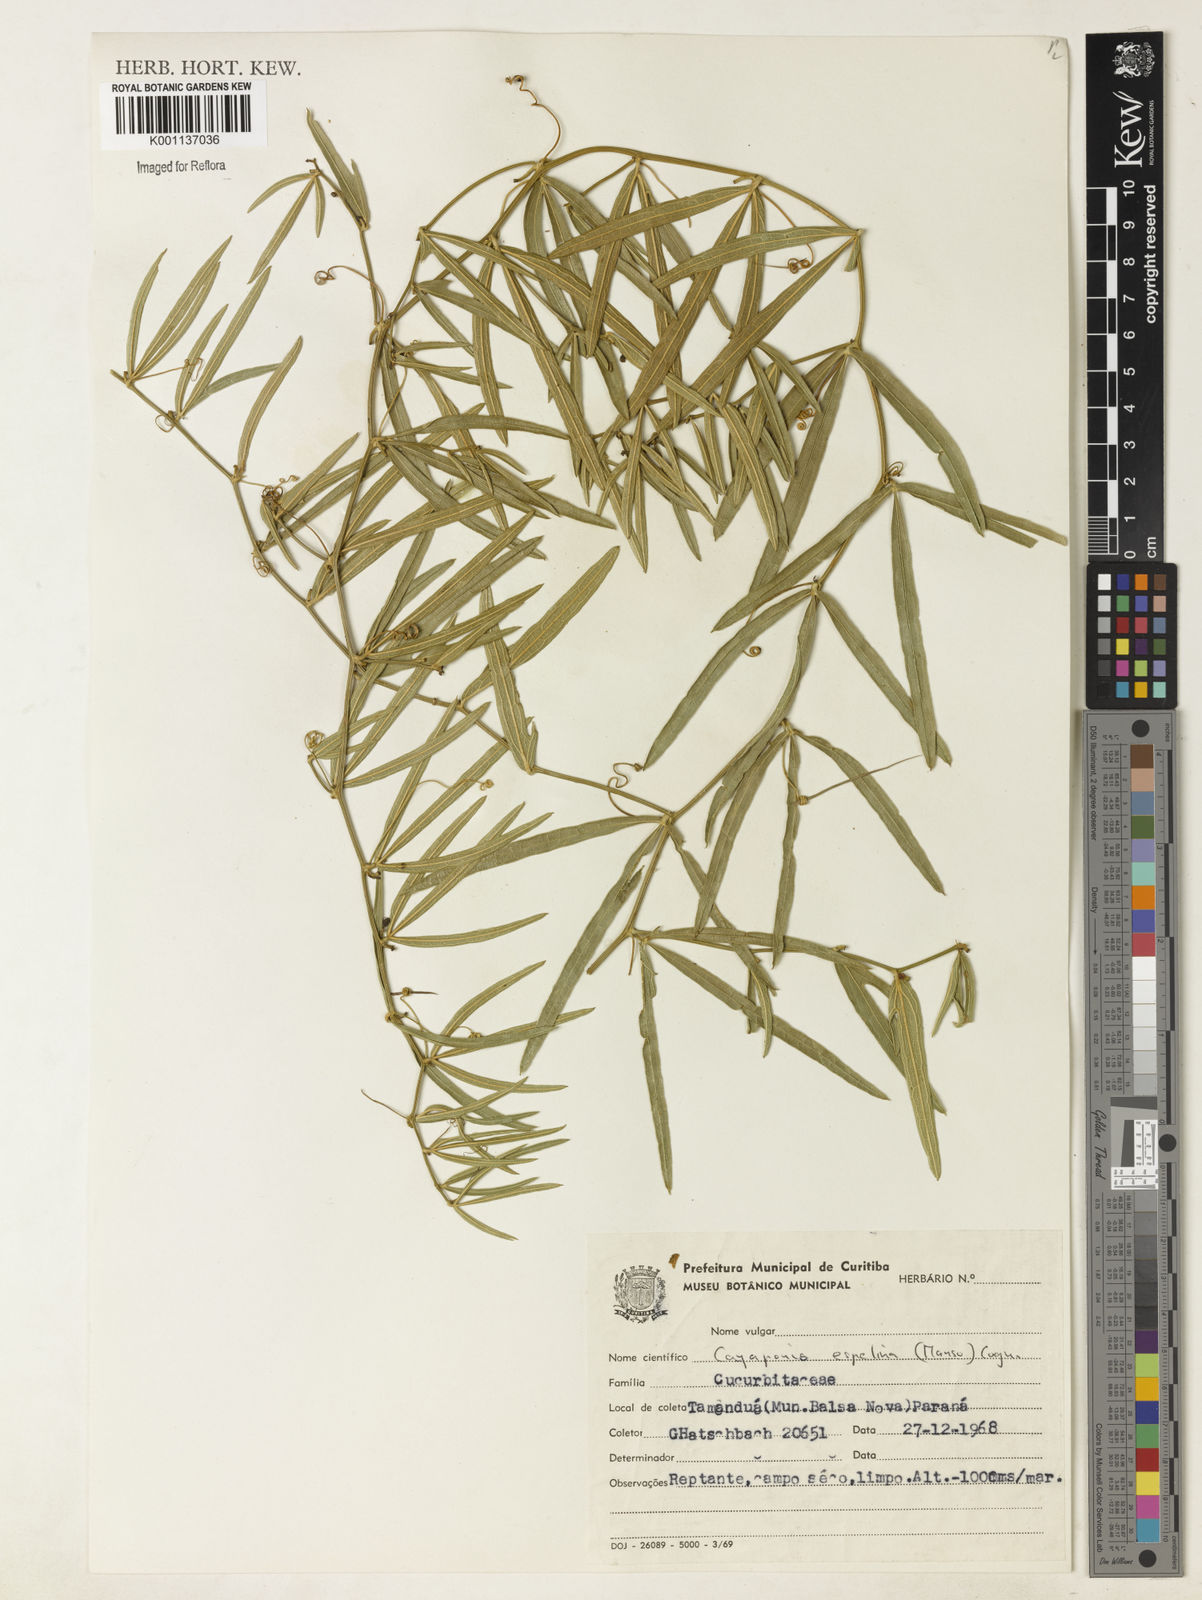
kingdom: Plantae
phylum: Tracheophyta
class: Magnoliopsida
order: Cucurbitales
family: Cucurbitaceae
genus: Cayaponia
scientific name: Cayaponia espelina
